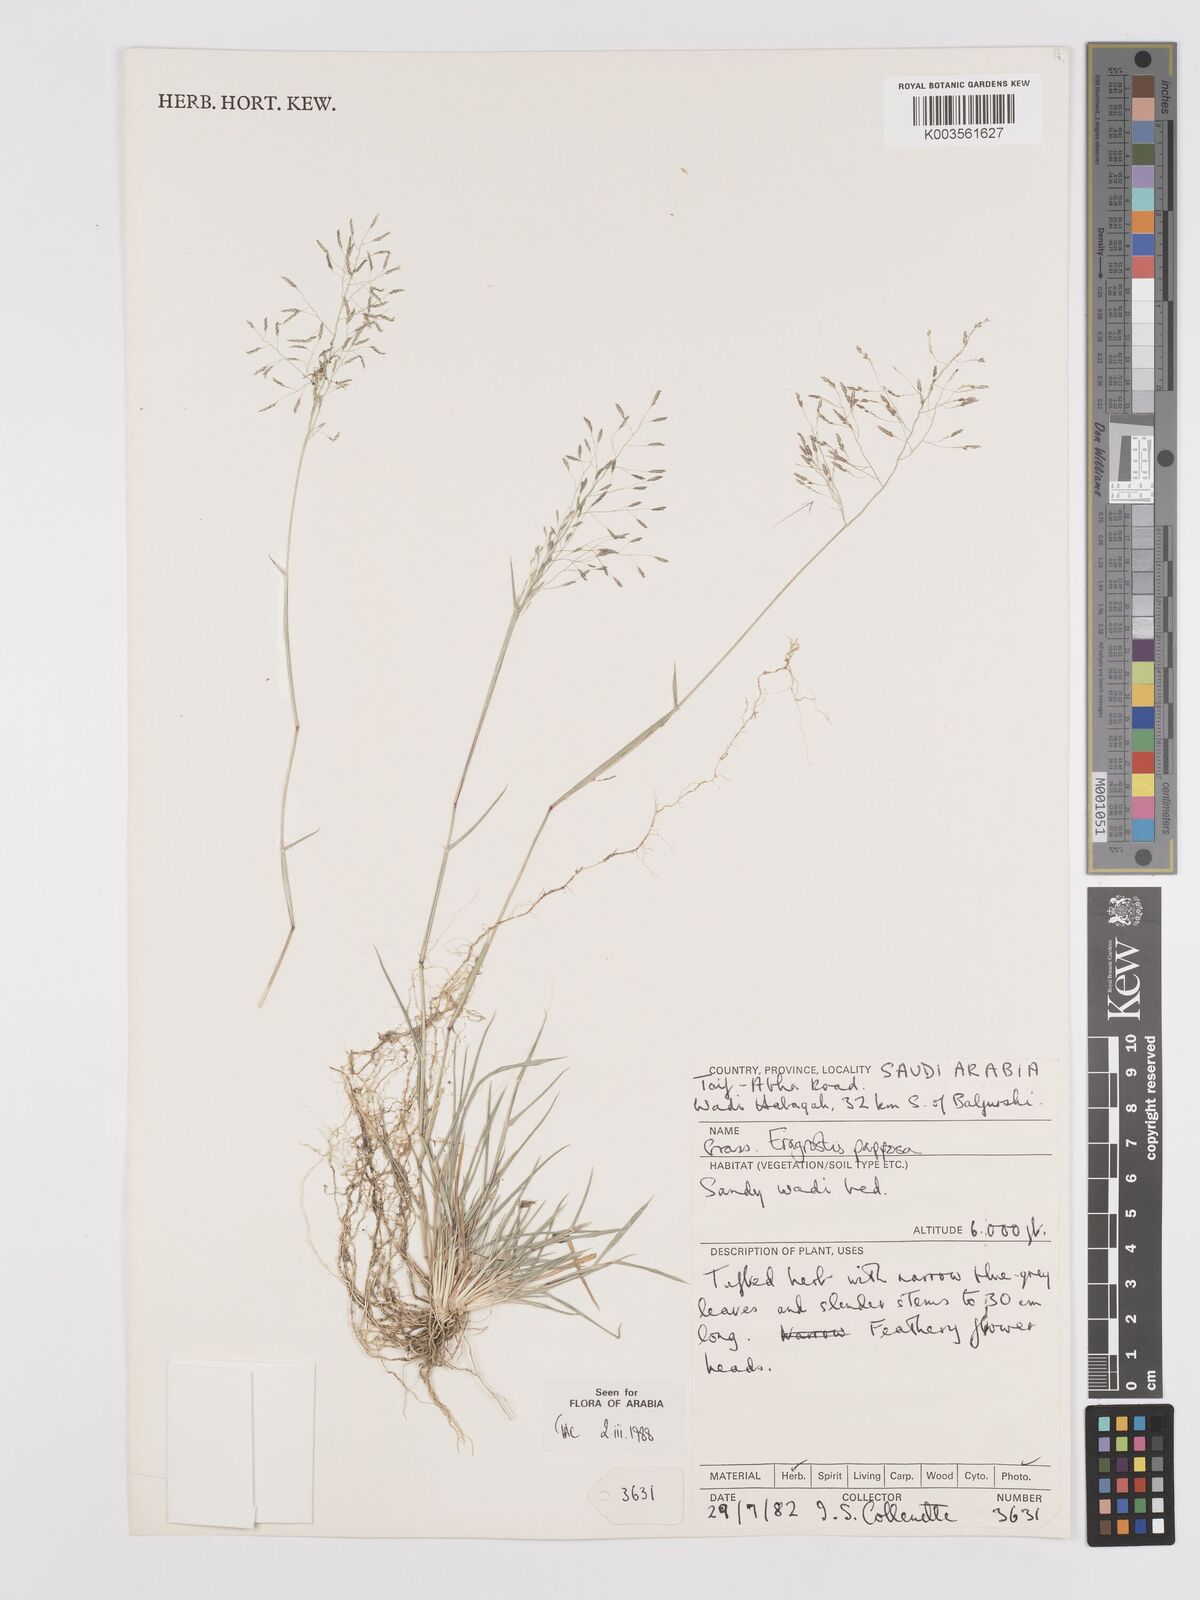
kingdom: Plantae
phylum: Tracheophyta
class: Liliopsida
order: Poales
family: Poaceae
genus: Eragrostis
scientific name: Eragrostis papposa
